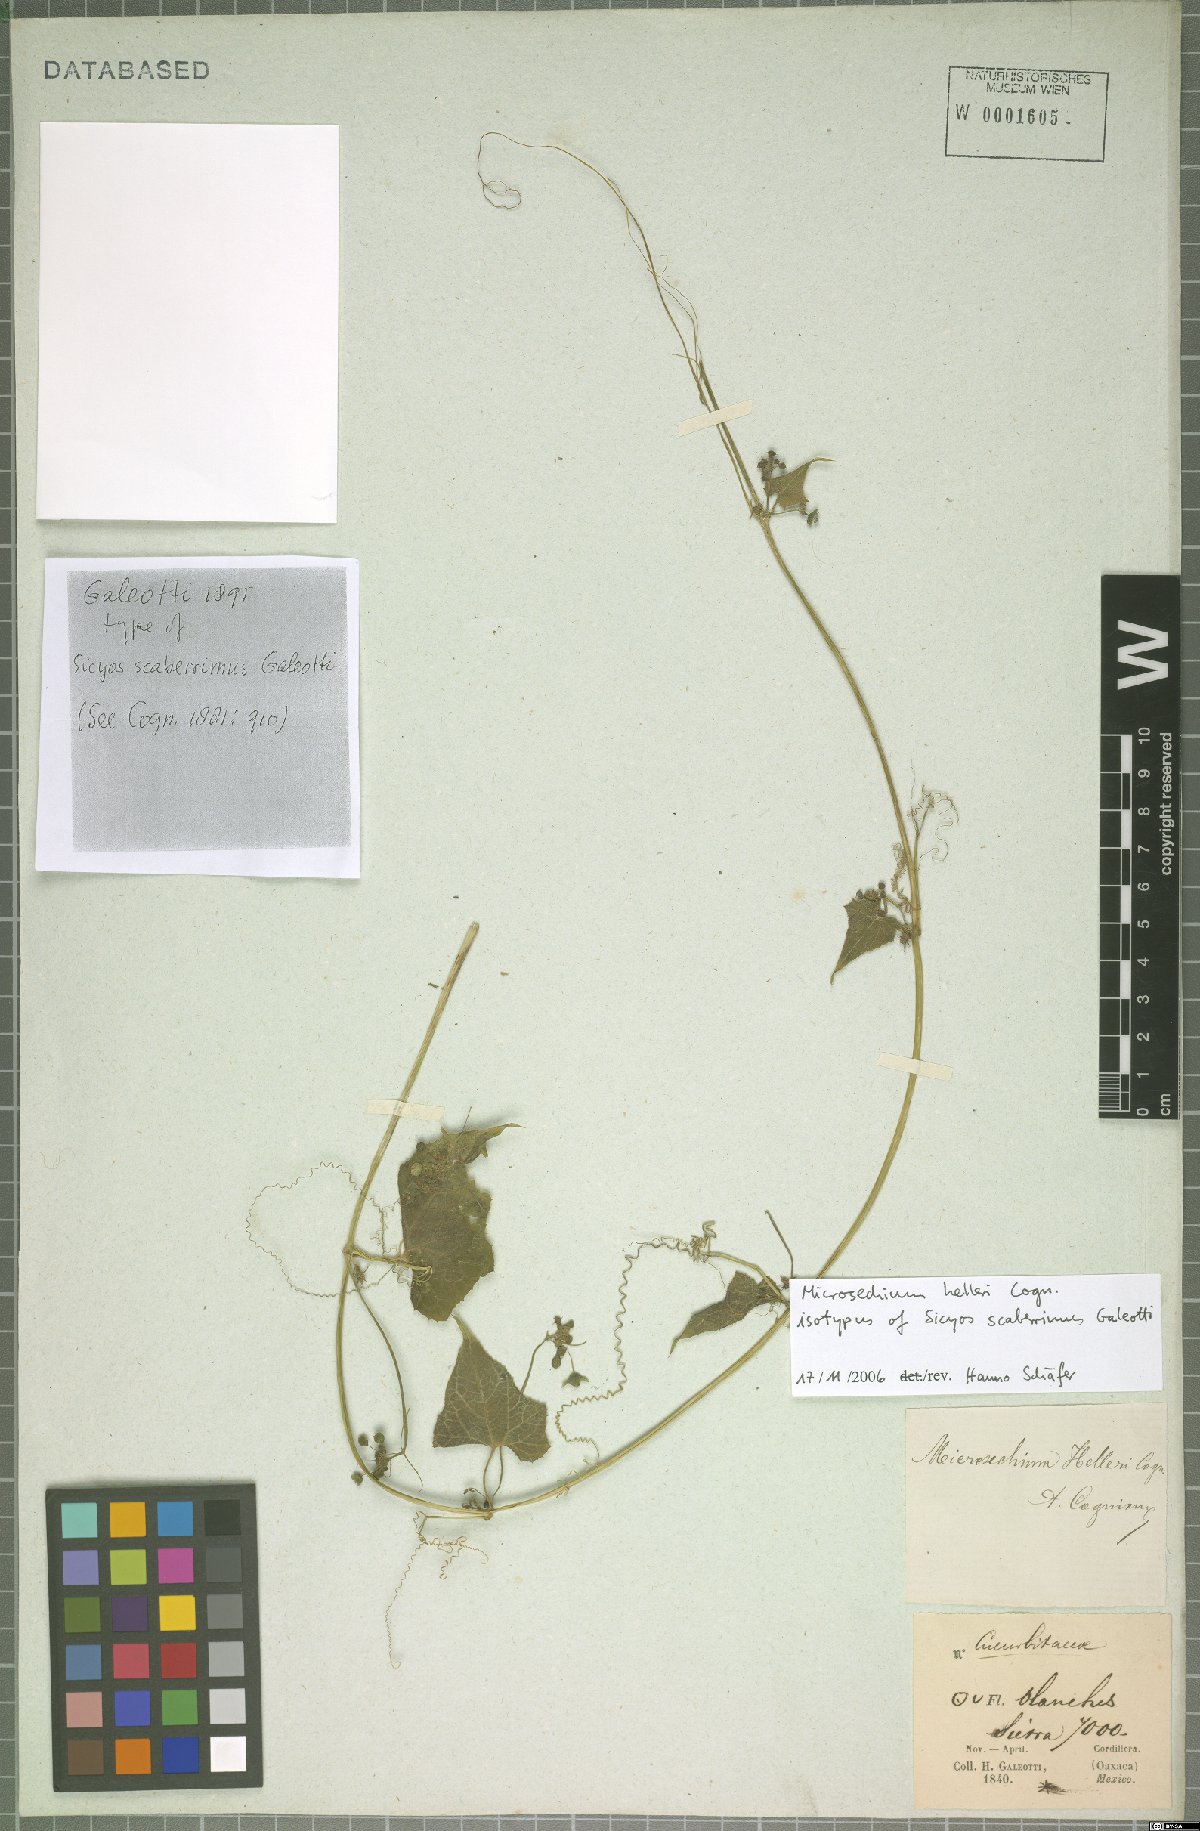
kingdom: Plantae
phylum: Tracheophyta
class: Magnoliopsida
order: Cucurbitales
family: Cucurbitaceae
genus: Microsechium
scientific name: Microsechium palmatum
